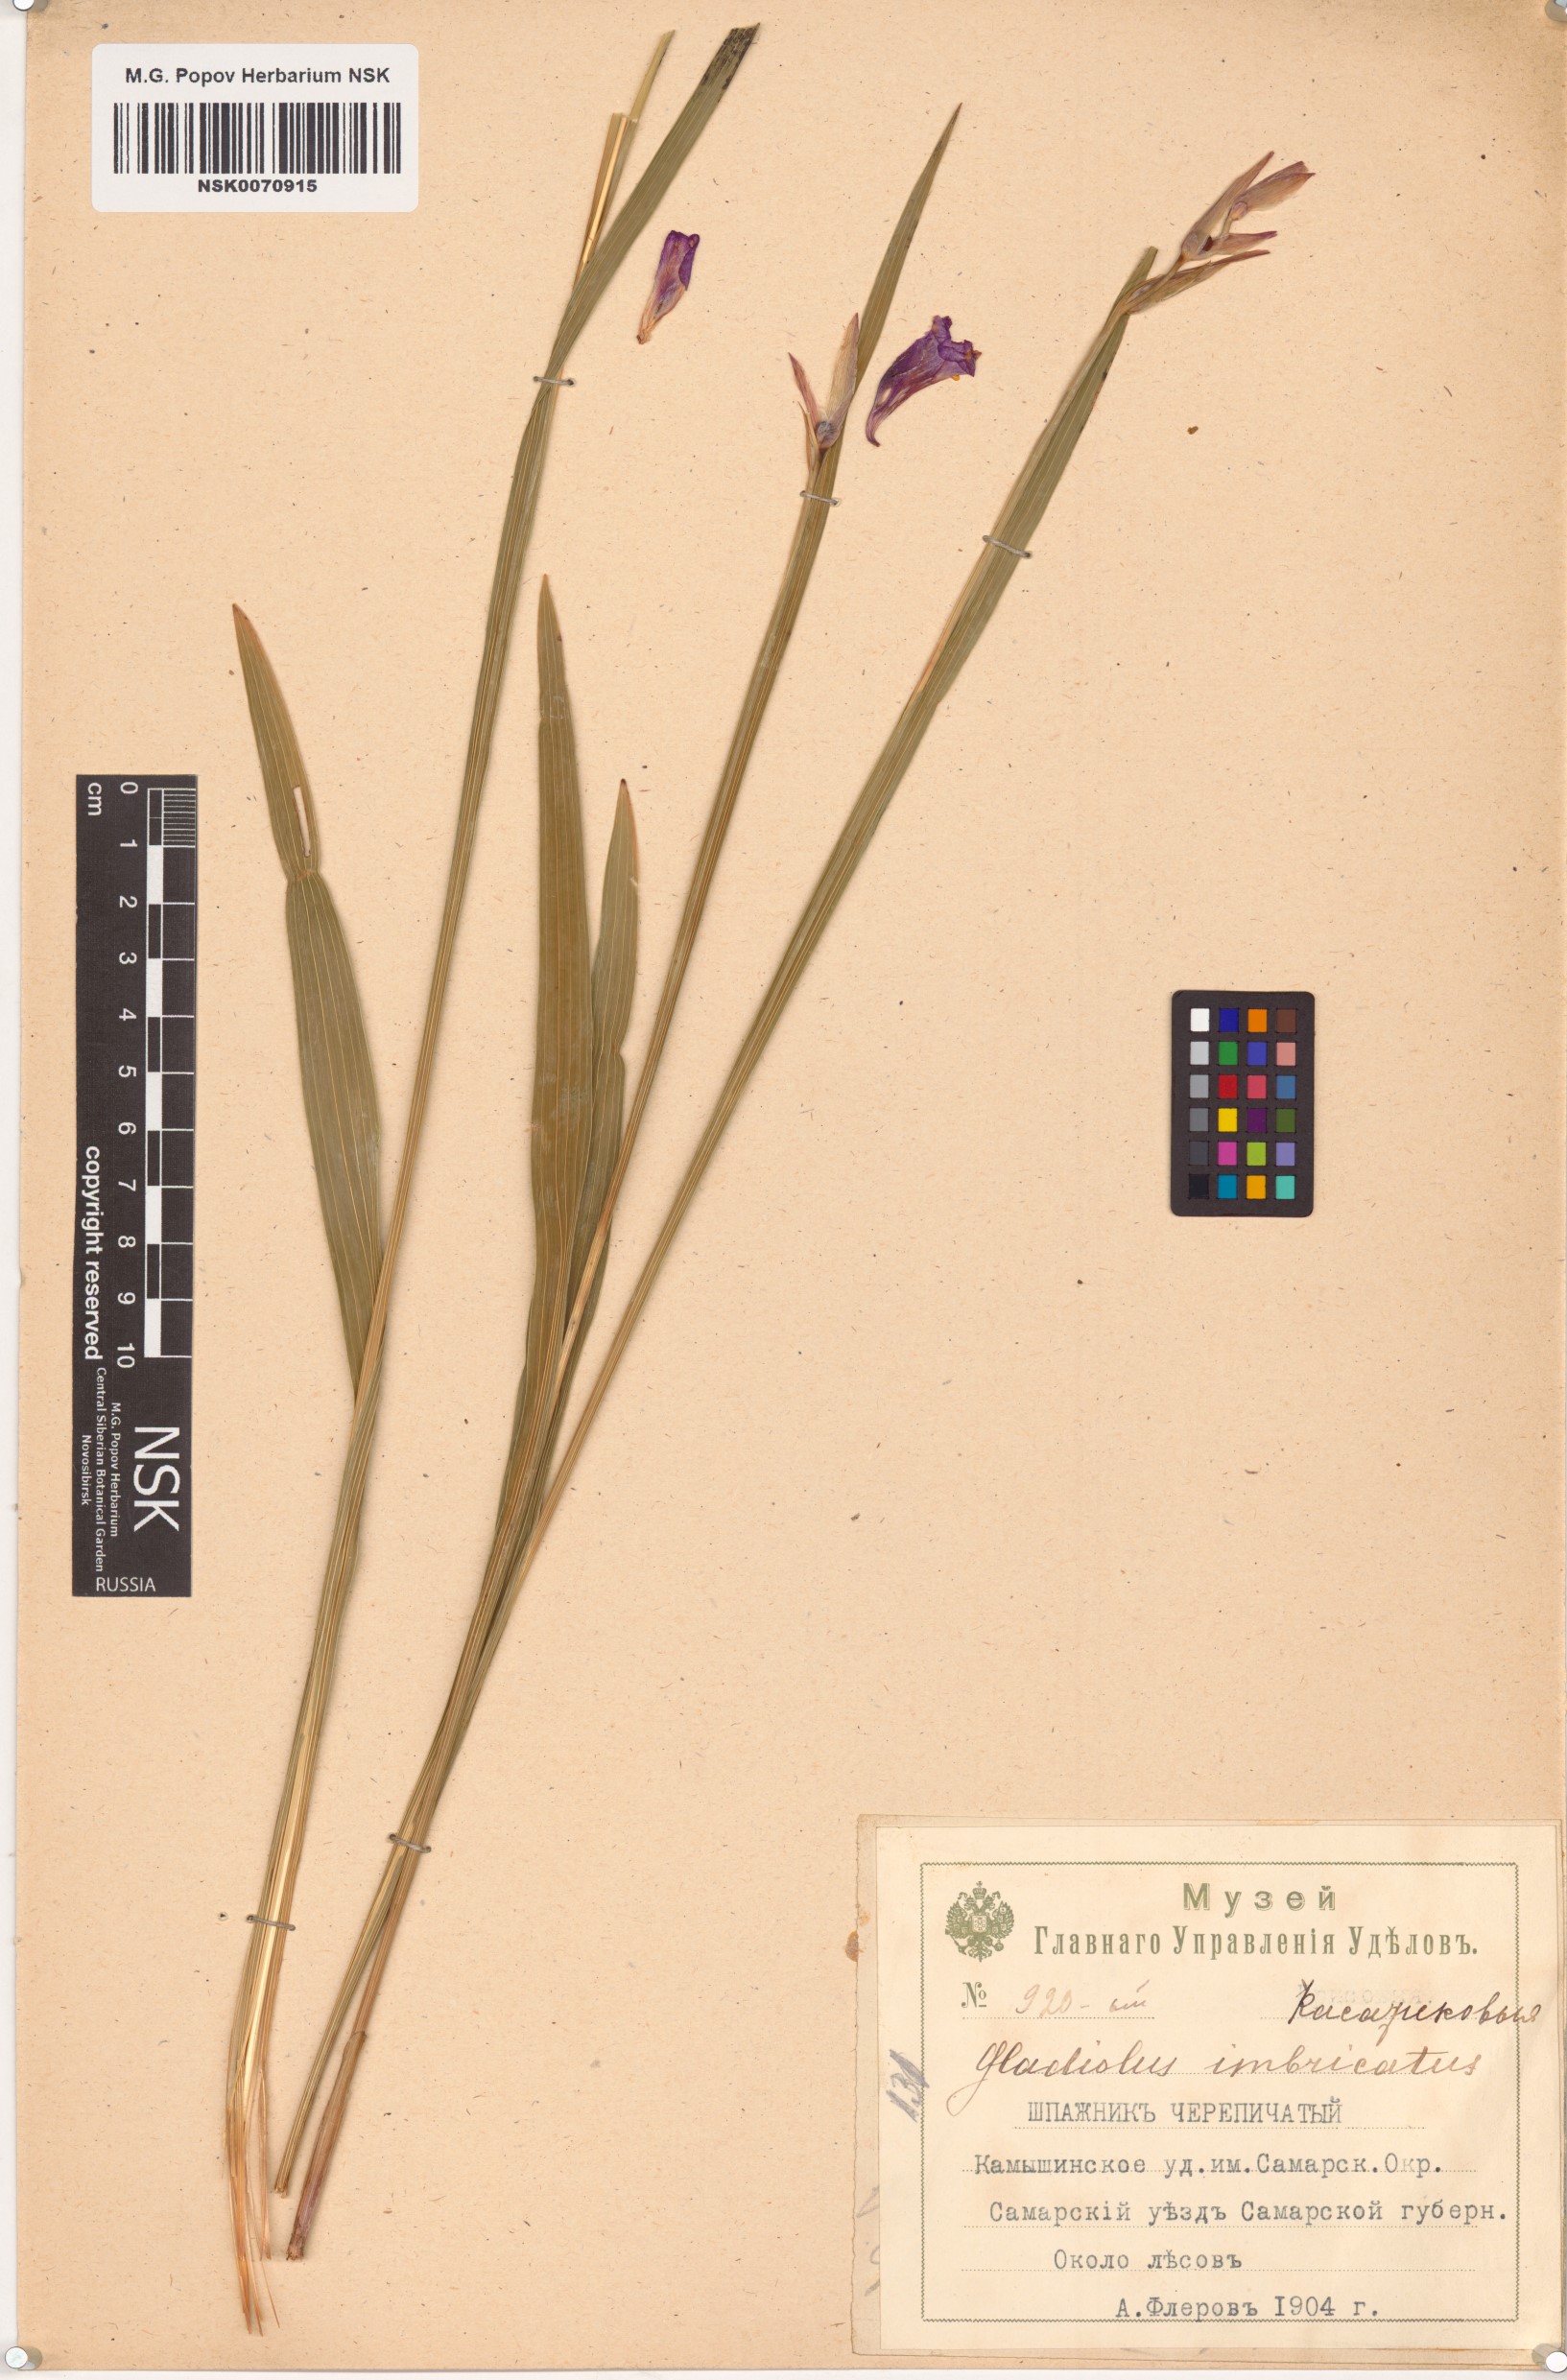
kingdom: Plantae
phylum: Tracheophyta
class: Liliopsida
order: Asparagales
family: Iridaceae
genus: Gladiolus
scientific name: Gladiolus imbricatus
